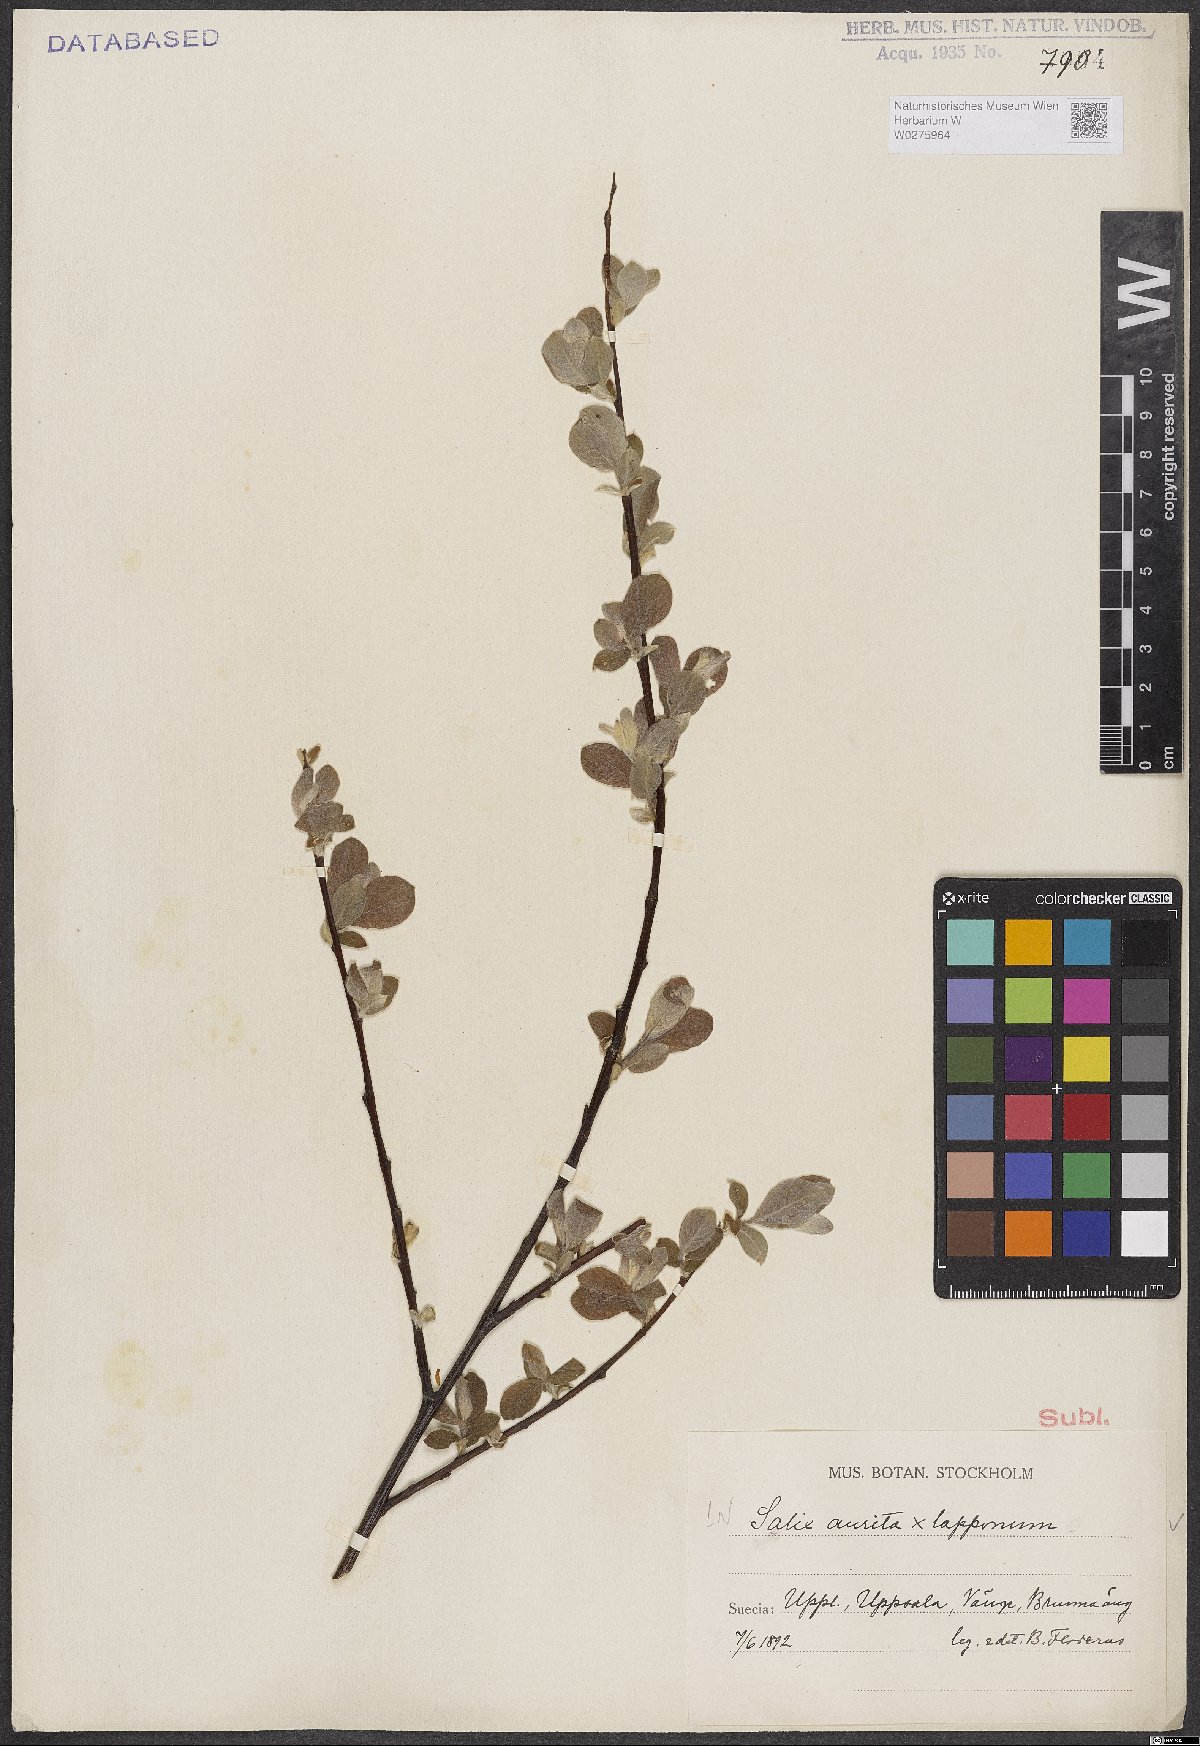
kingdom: Plantae
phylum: Tracheophyta
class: Magnoliopsida
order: Malpighiales
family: Salicaceae
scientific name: Salicaceae
